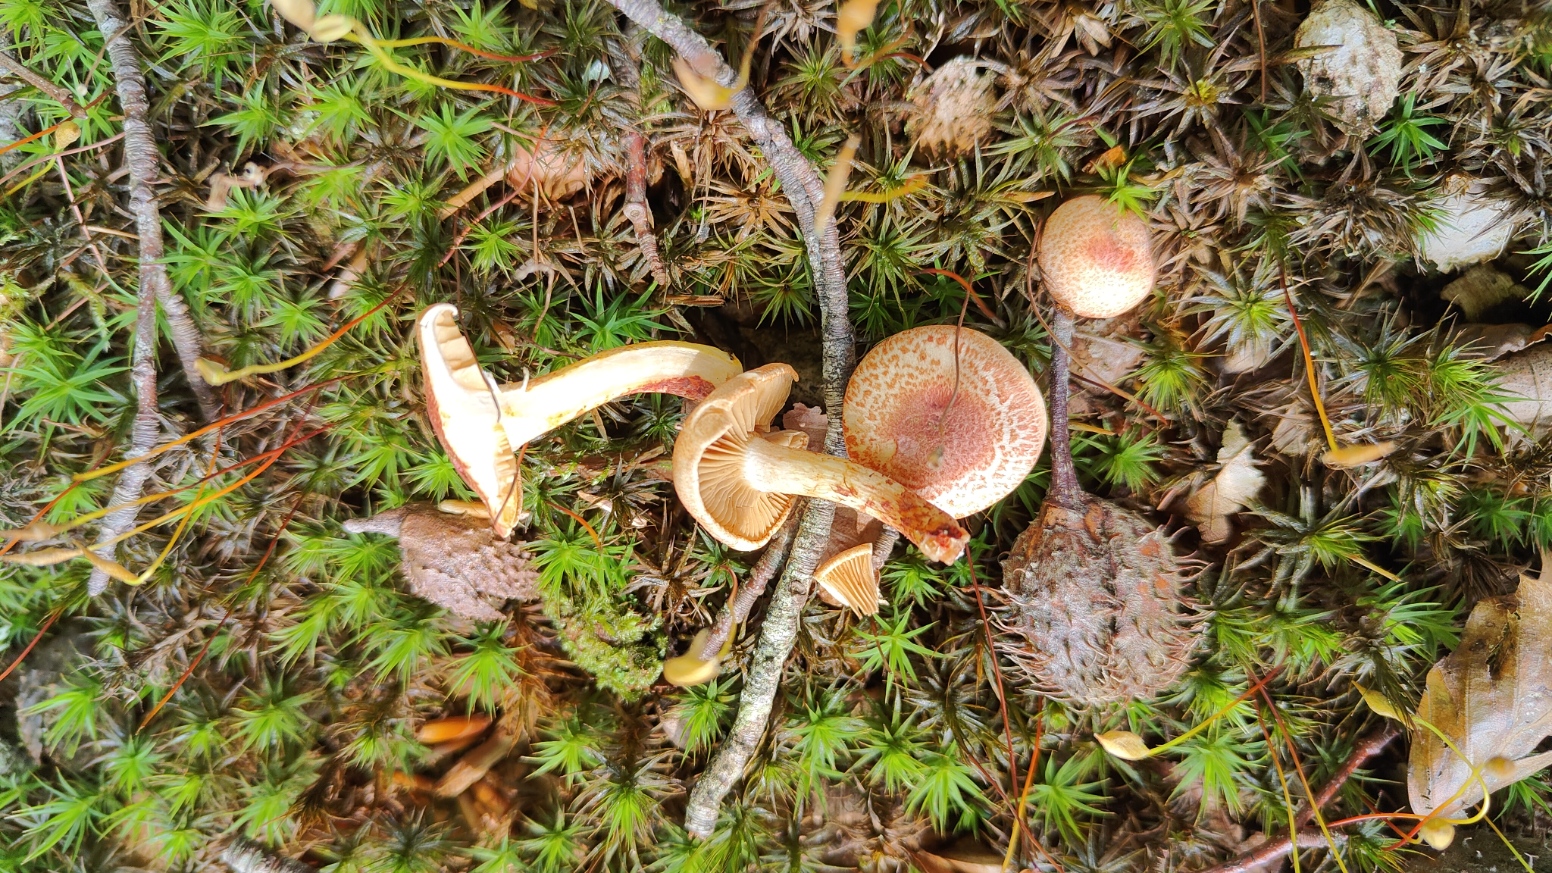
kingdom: Fungi
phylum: Basidiomycota
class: Agaricomycetes
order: Agaricales
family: Cortinariaceae
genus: Cortinarius
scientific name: Cortinarius bolaris
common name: cinnoberskællet slørhat
